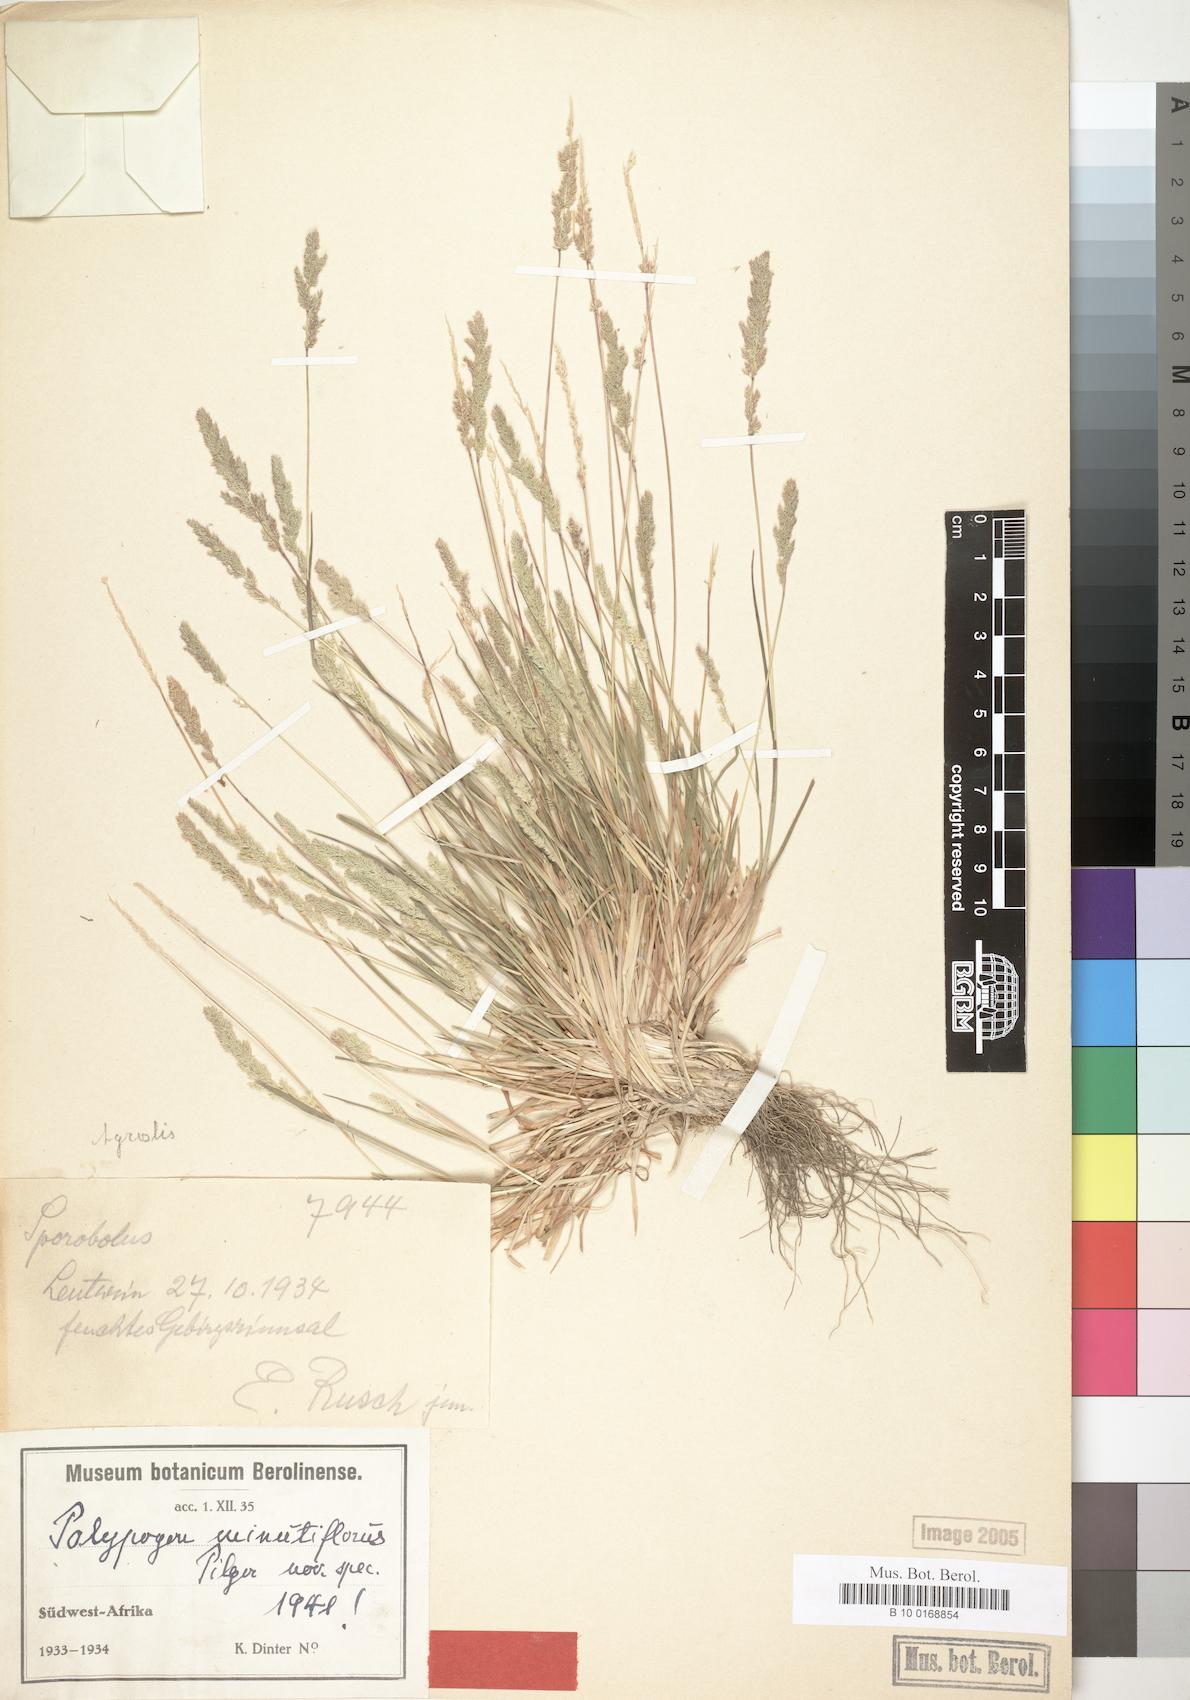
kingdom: Plantae
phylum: Tracheophyta
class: Liliopsida
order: Poales
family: Poaceae
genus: Polypogon
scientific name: Polypogon griquensis
